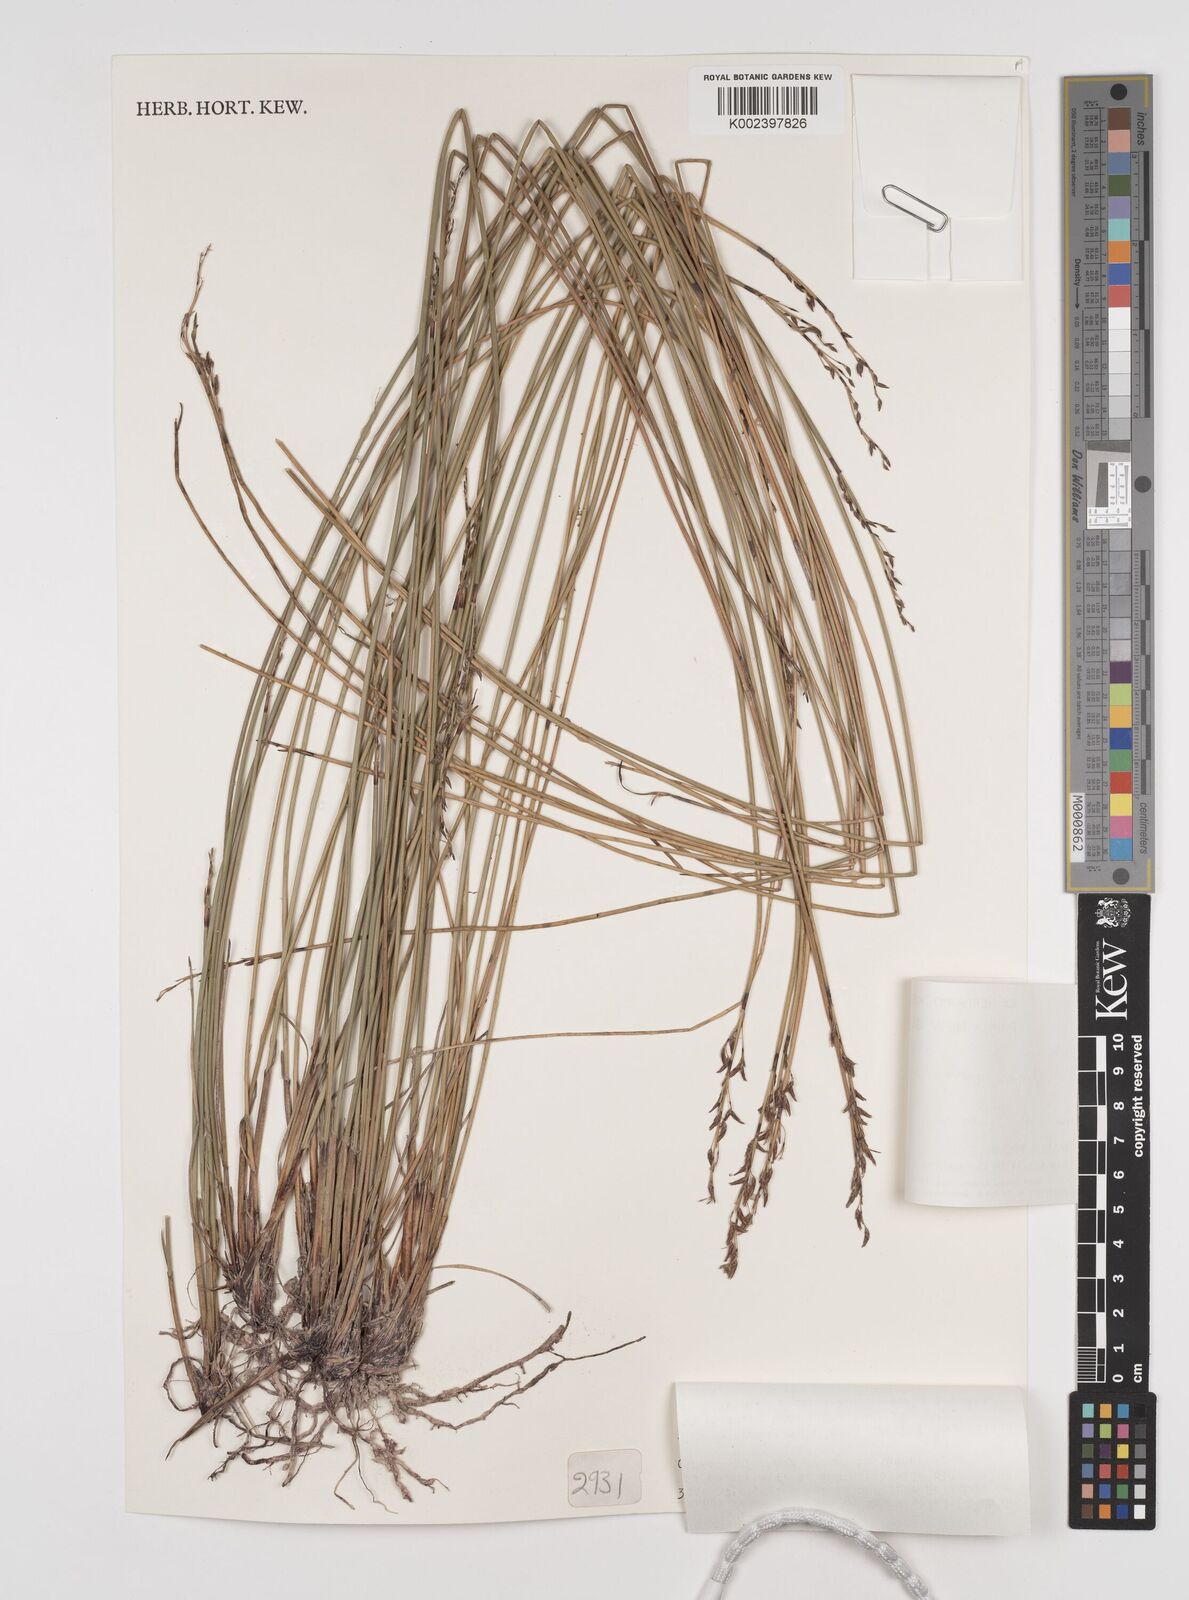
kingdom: Plantae
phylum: Tracheophyta
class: Liliopsida
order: Poales
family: Cyperaceae
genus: Schoenus
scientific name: Schoenus melanostachys
